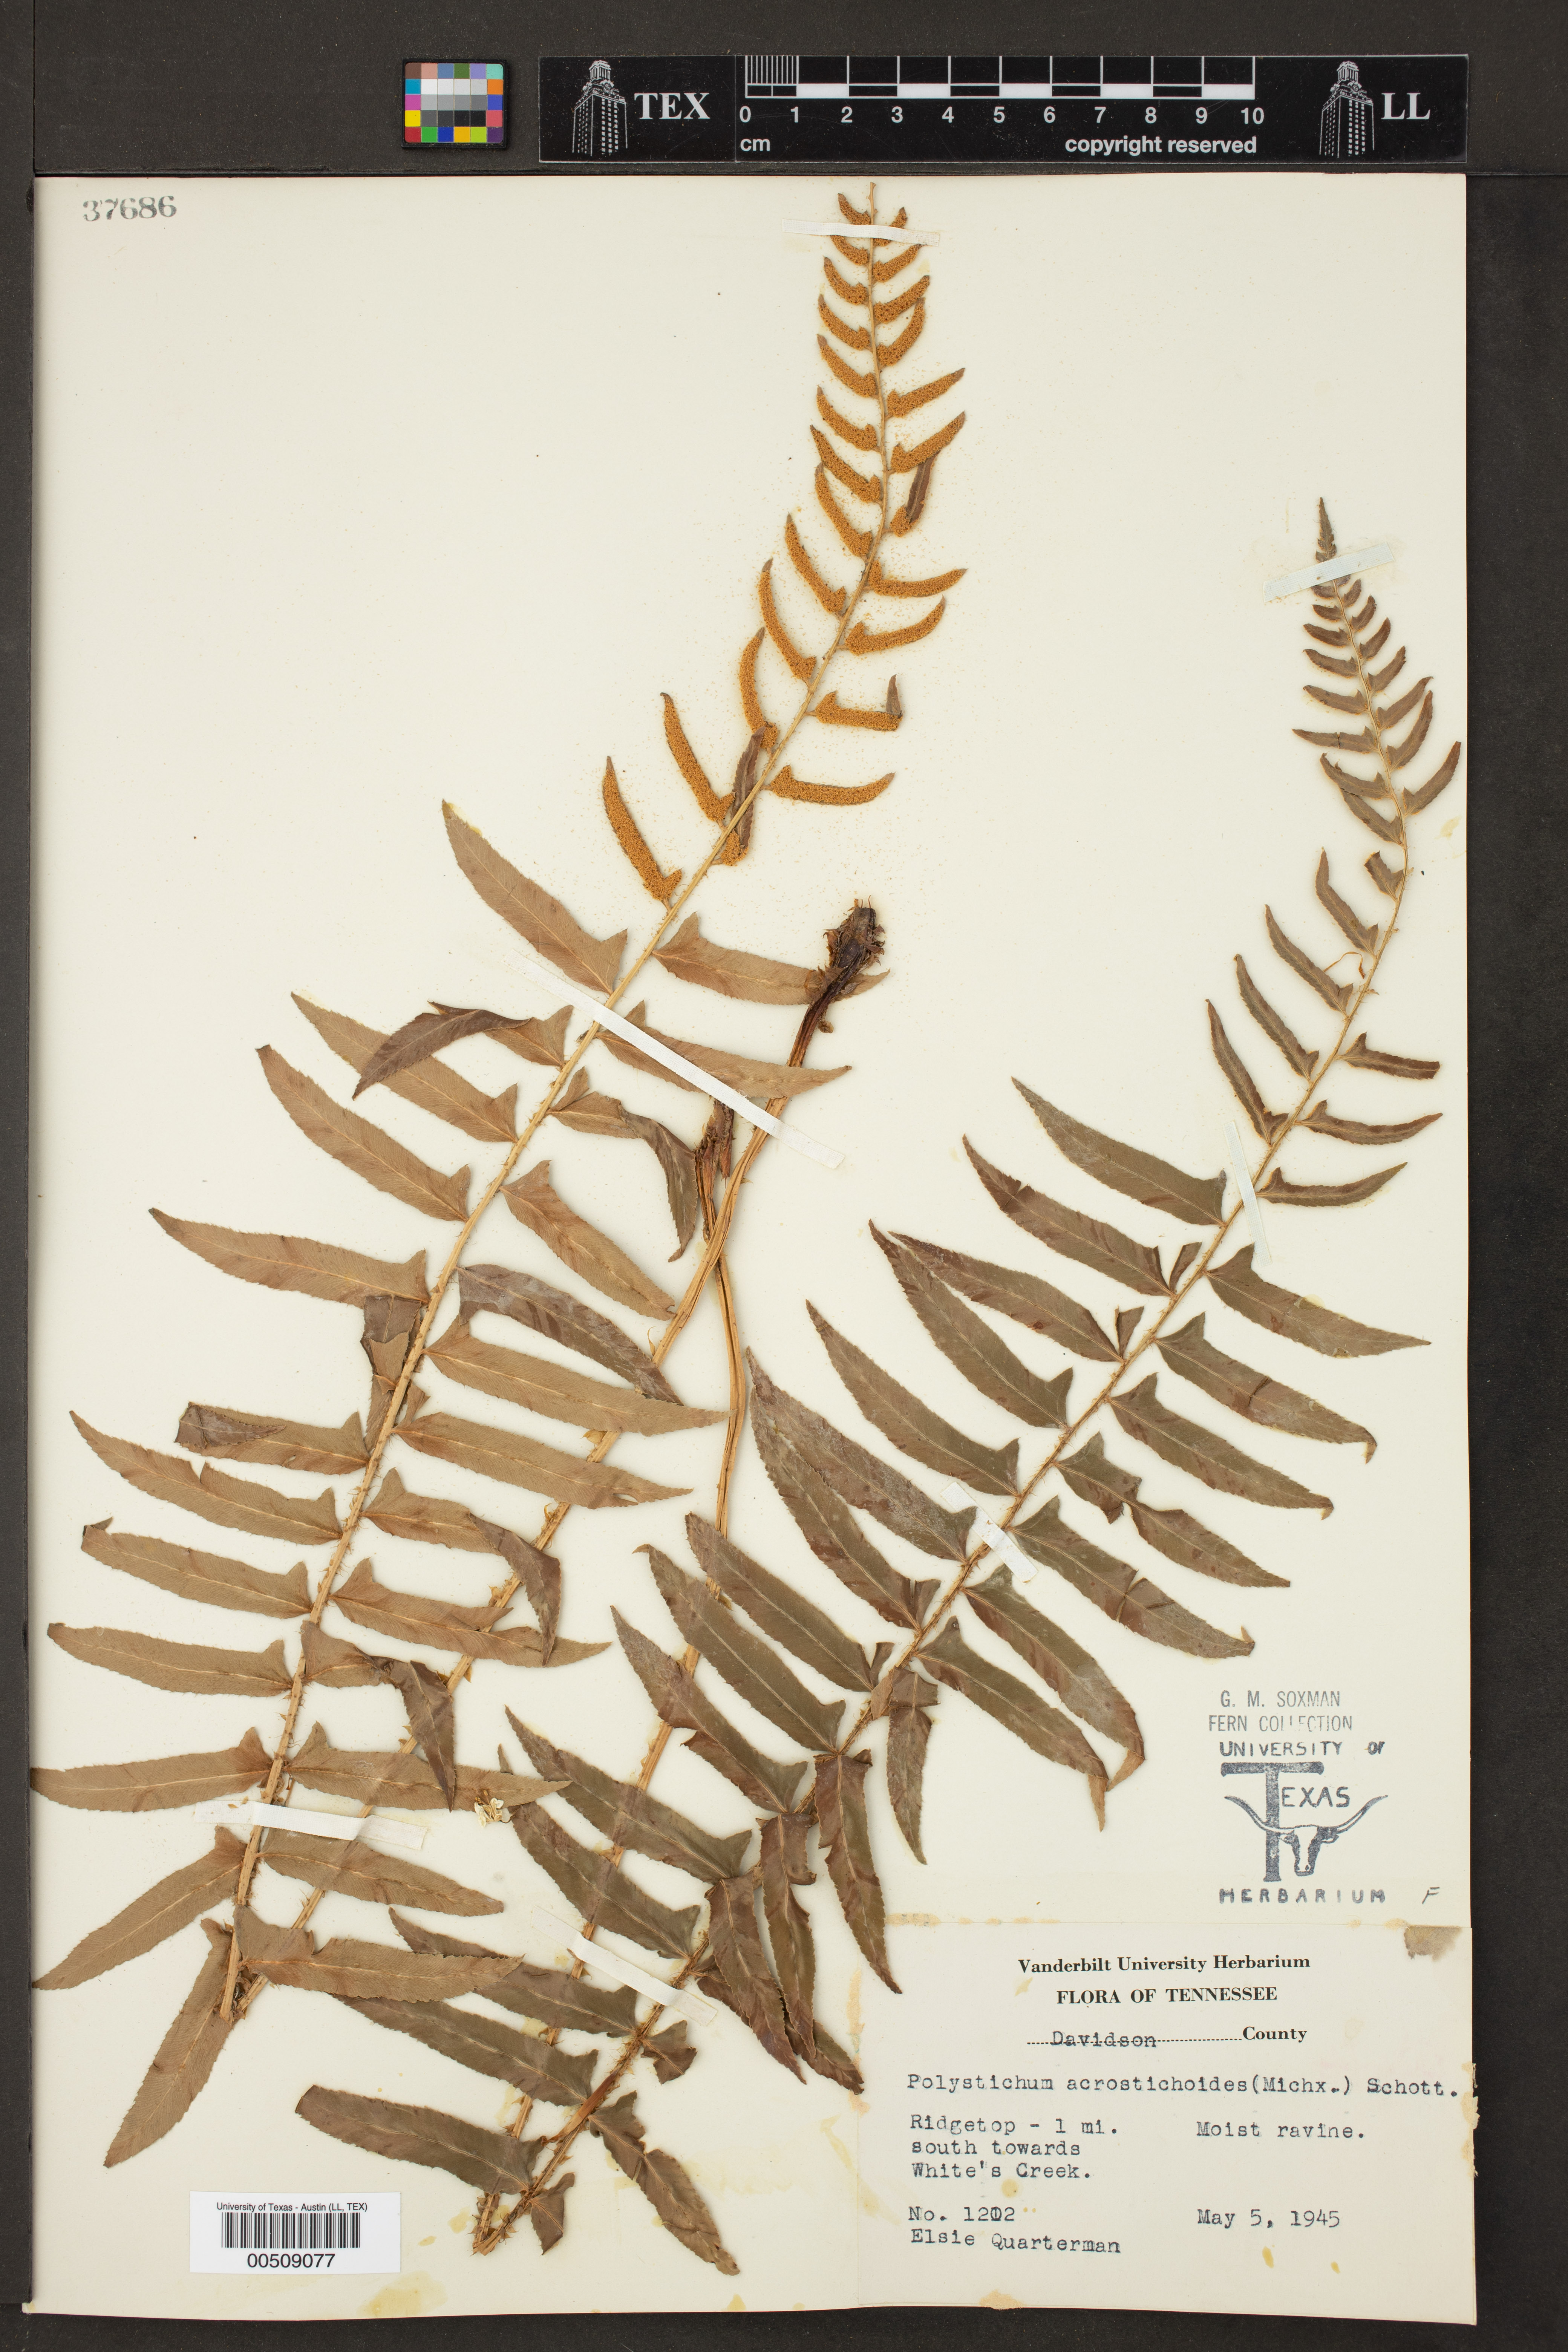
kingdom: Plantae
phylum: Tracheophyta
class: Polypodiopsida
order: Polypodiales
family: Dryopteridaceae
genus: Polystichum
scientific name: Polystichum acrostichoides
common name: Christmas fern
